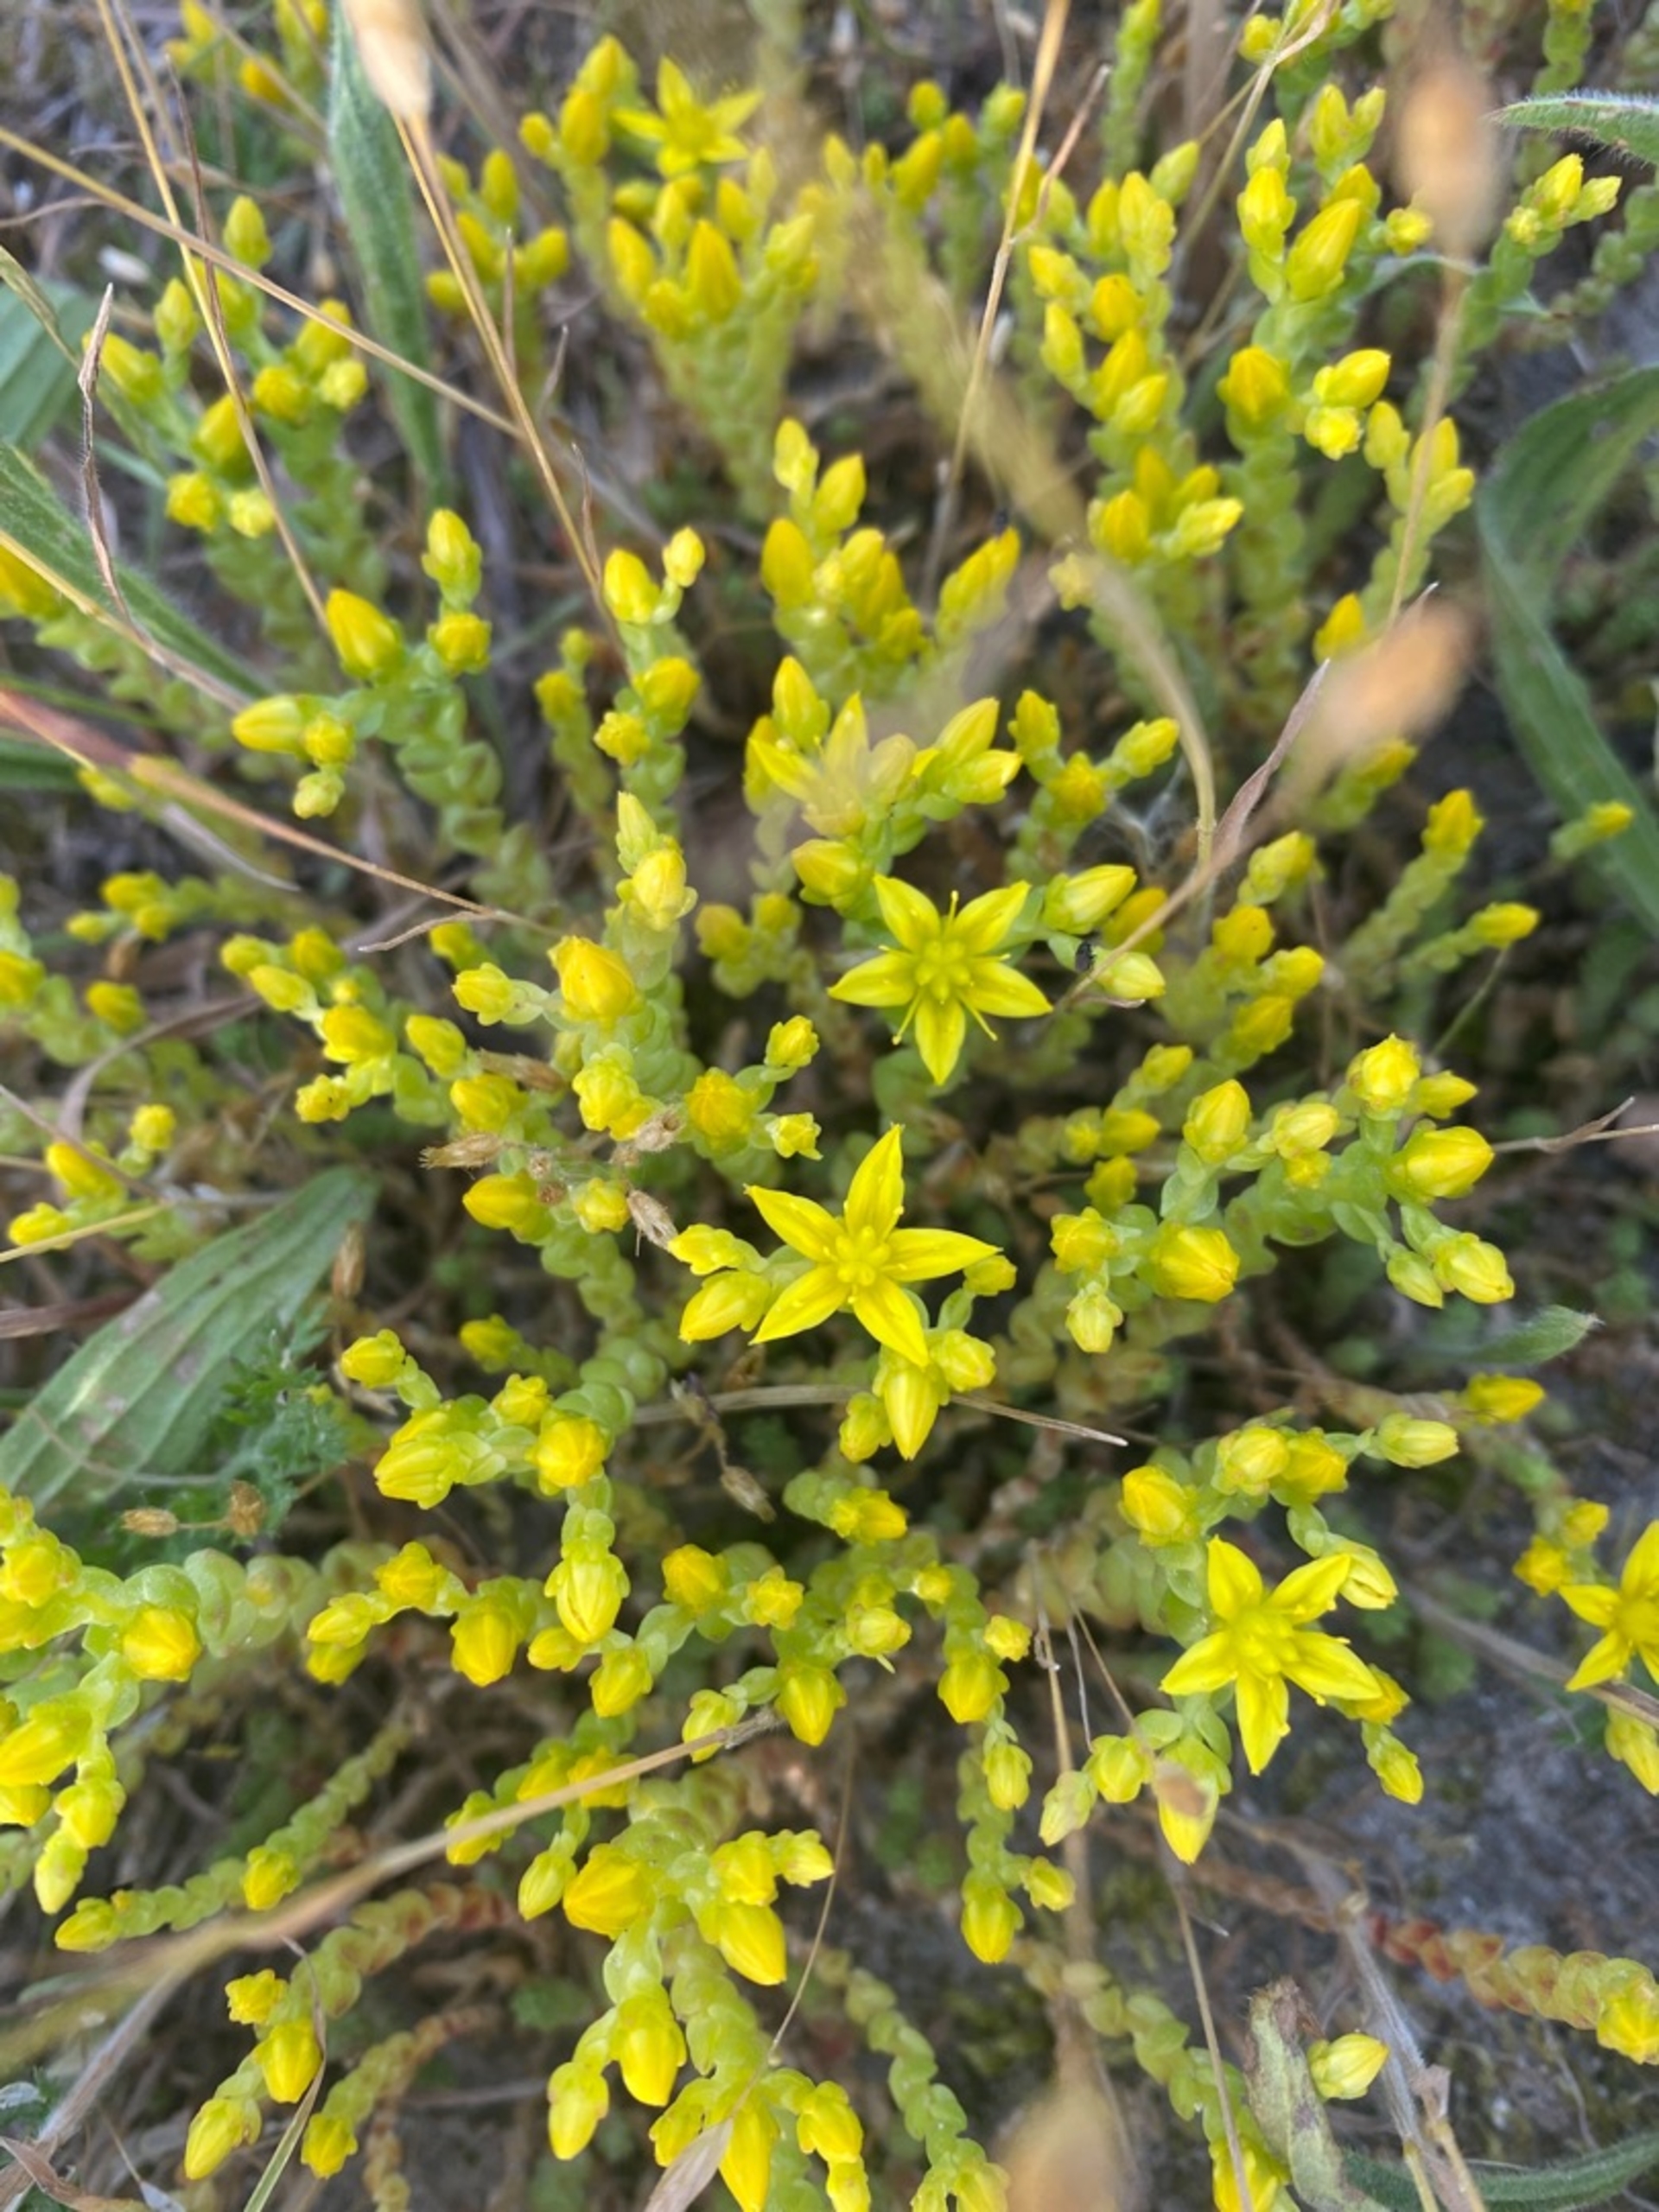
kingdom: Plantae
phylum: Tracheophyta
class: Magnoliopsida
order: Saxifragales
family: Crassulaceae
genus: Sedum
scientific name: Sedum acre
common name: Bidende stenurt
